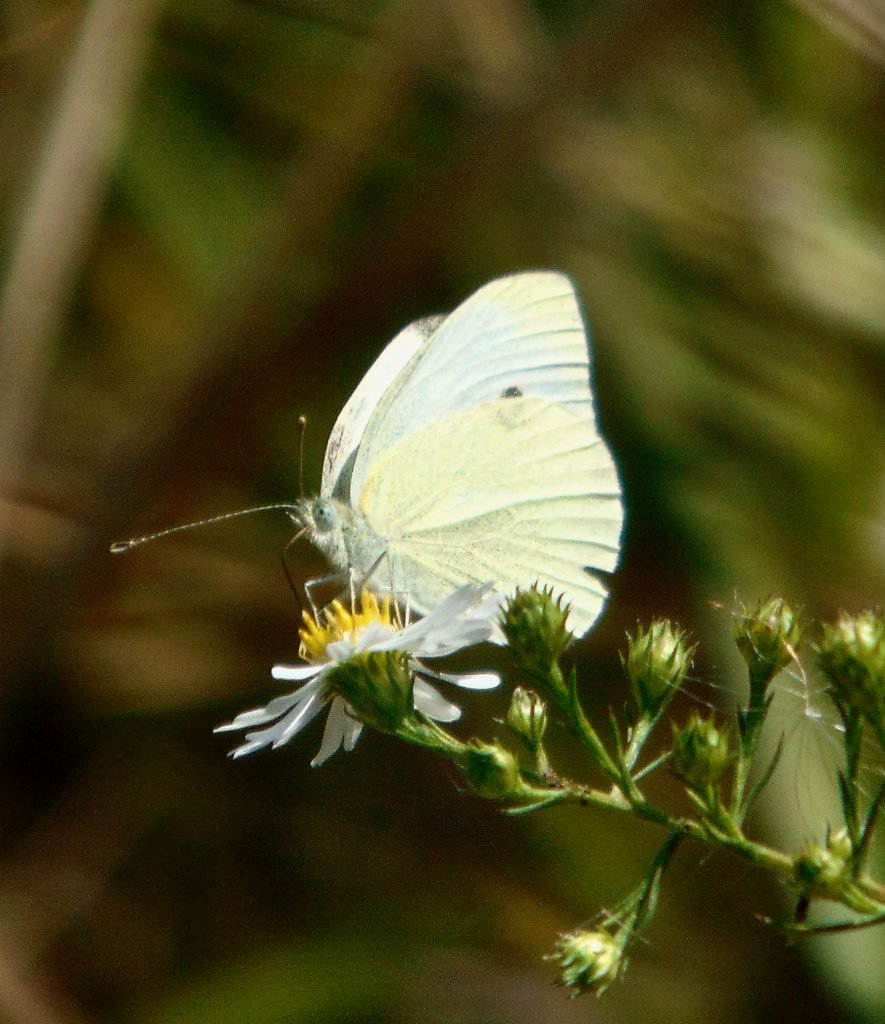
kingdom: Animalia
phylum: Arthropoda
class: Insecta
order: Lepidoptera
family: Pieridae
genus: Pieris
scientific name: Pieris rapae
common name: Cabbage White
